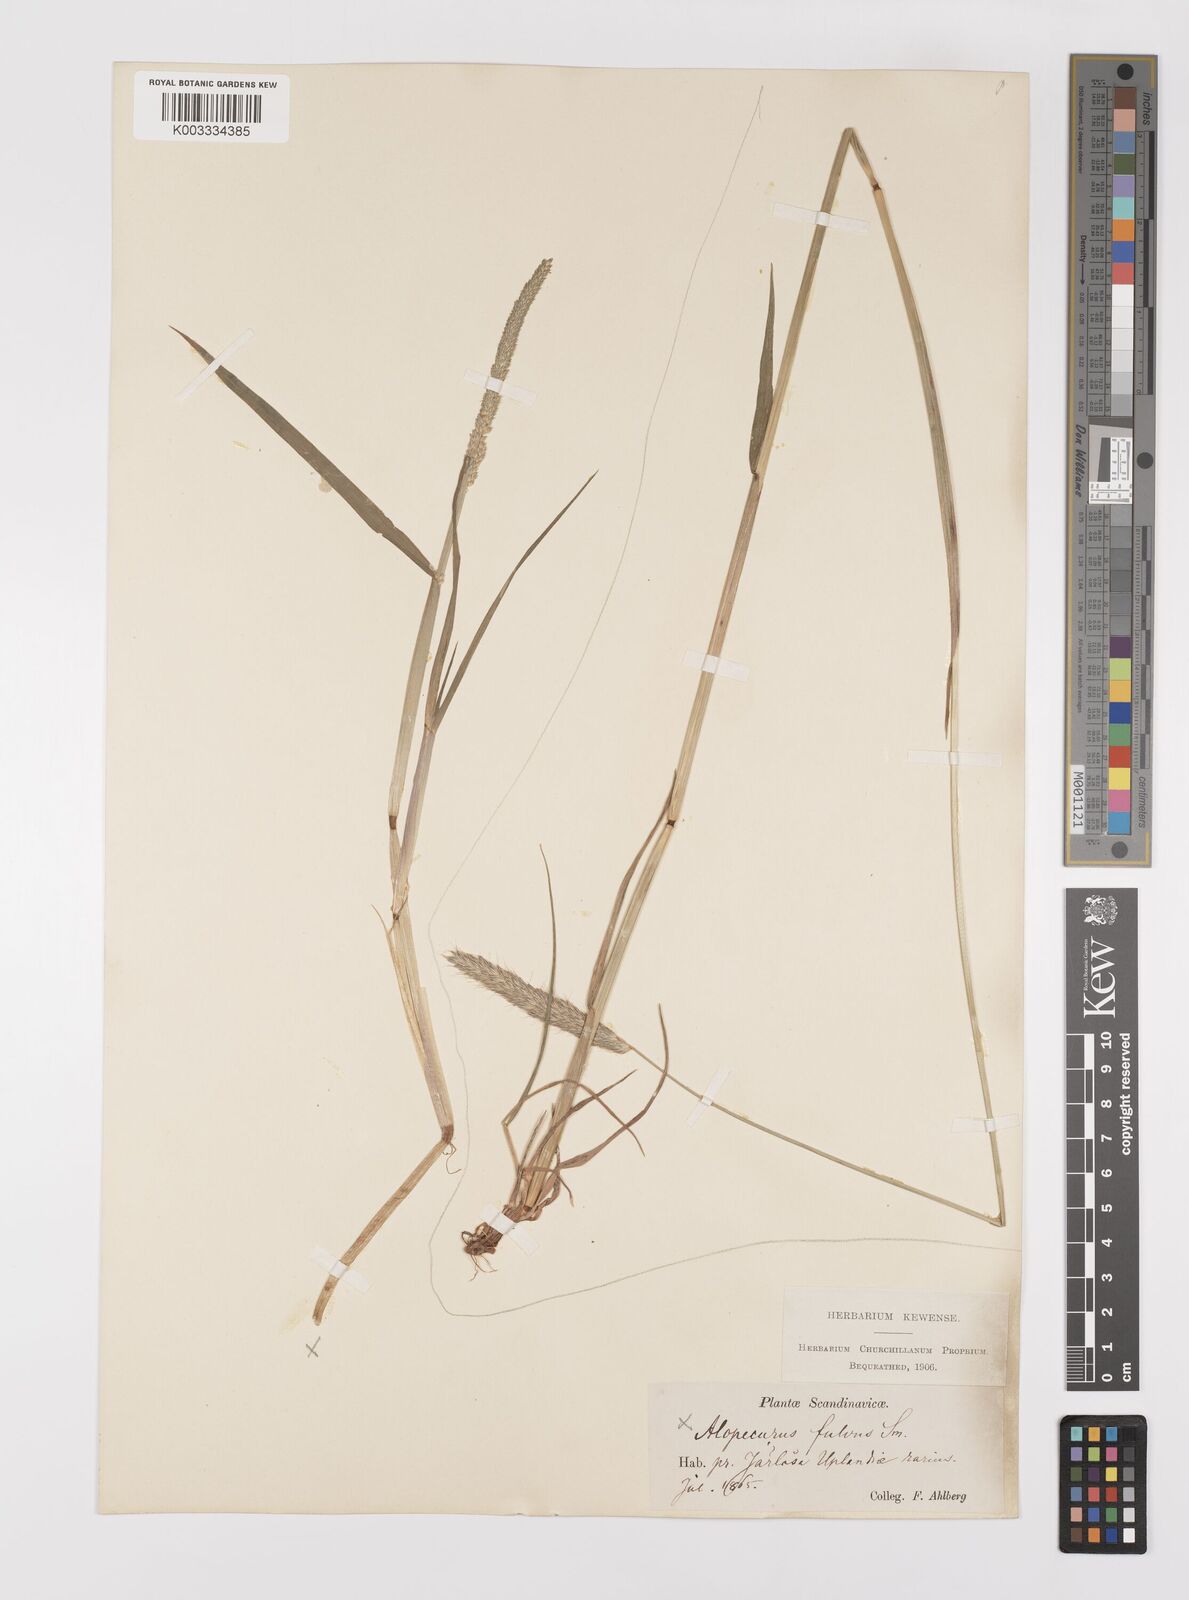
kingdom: Plantae
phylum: Tracheophyta
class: Liliopsida
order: Poales
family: Poaceae
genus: Alopecurus
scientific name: Alopecurus aequalis
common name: Orange foxtail
